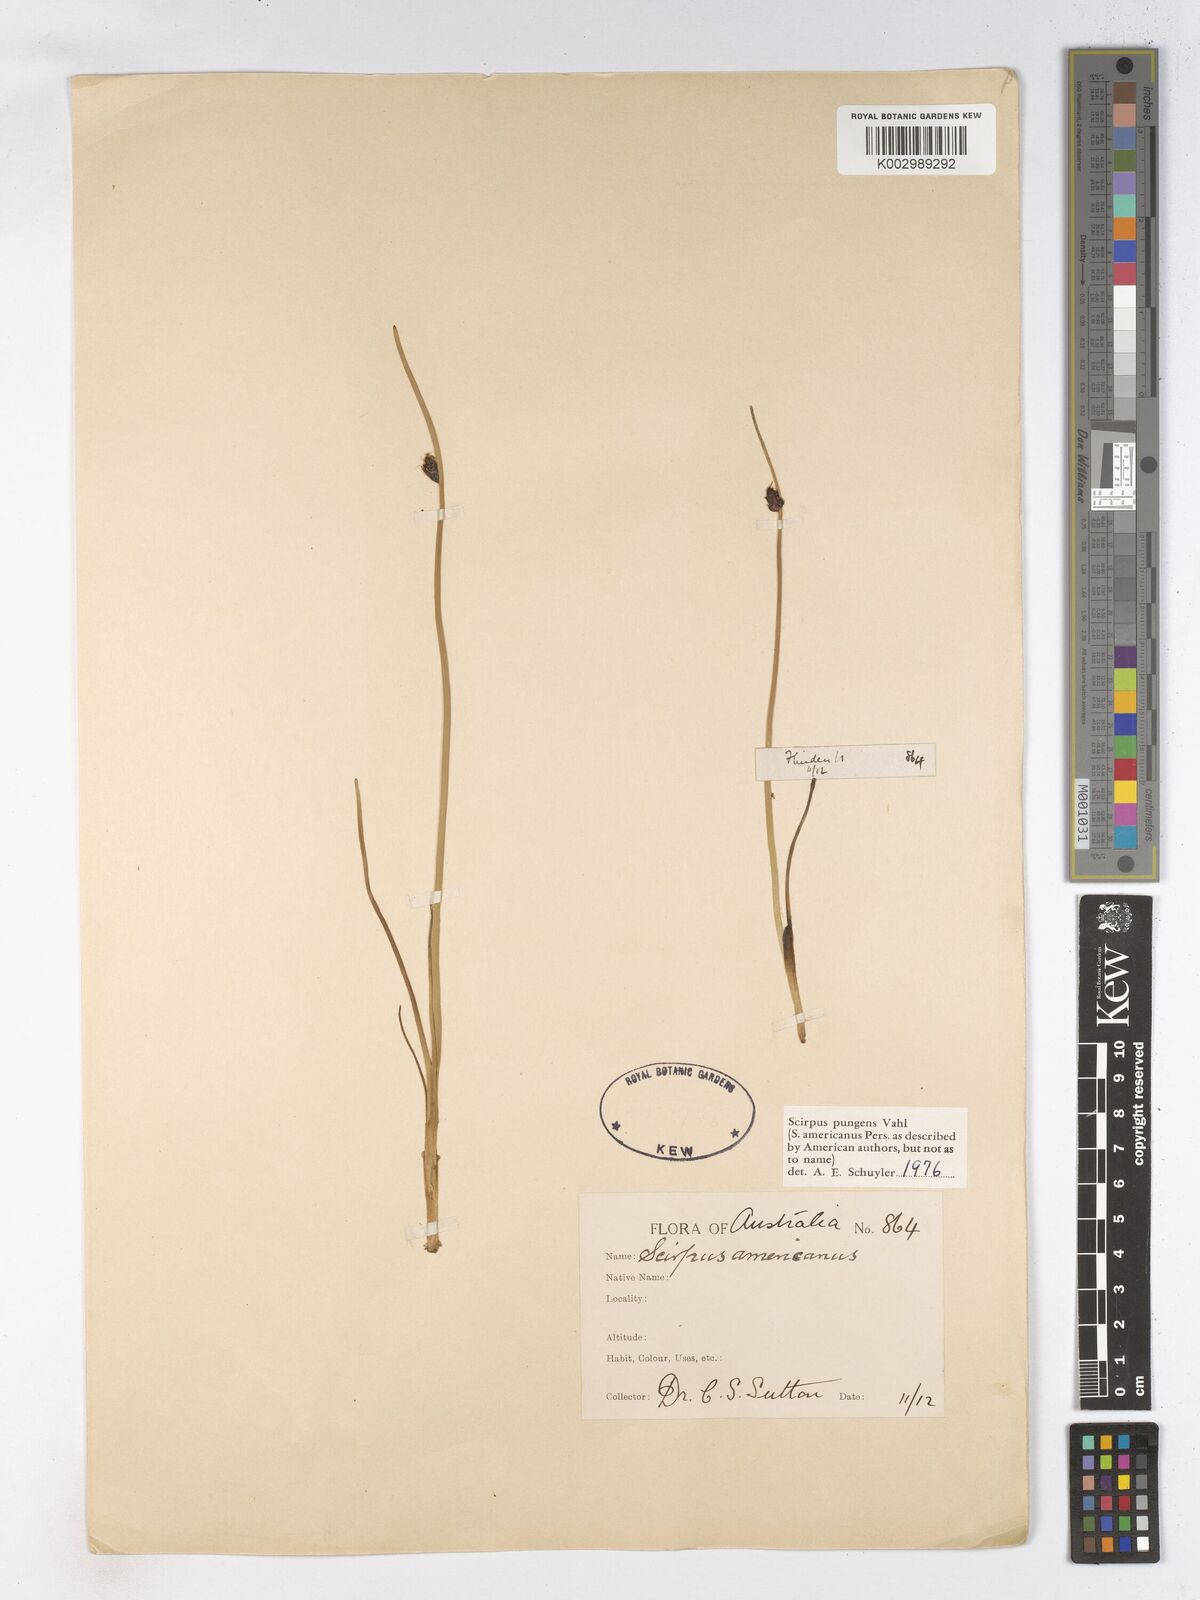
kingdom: Plantae
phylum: Tracheophyta
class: Liliopsida
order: Poales
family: Cyperaceae
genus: Schoenoplectus
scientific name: Schoenoplectus pungens
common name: Sharp club-rush
